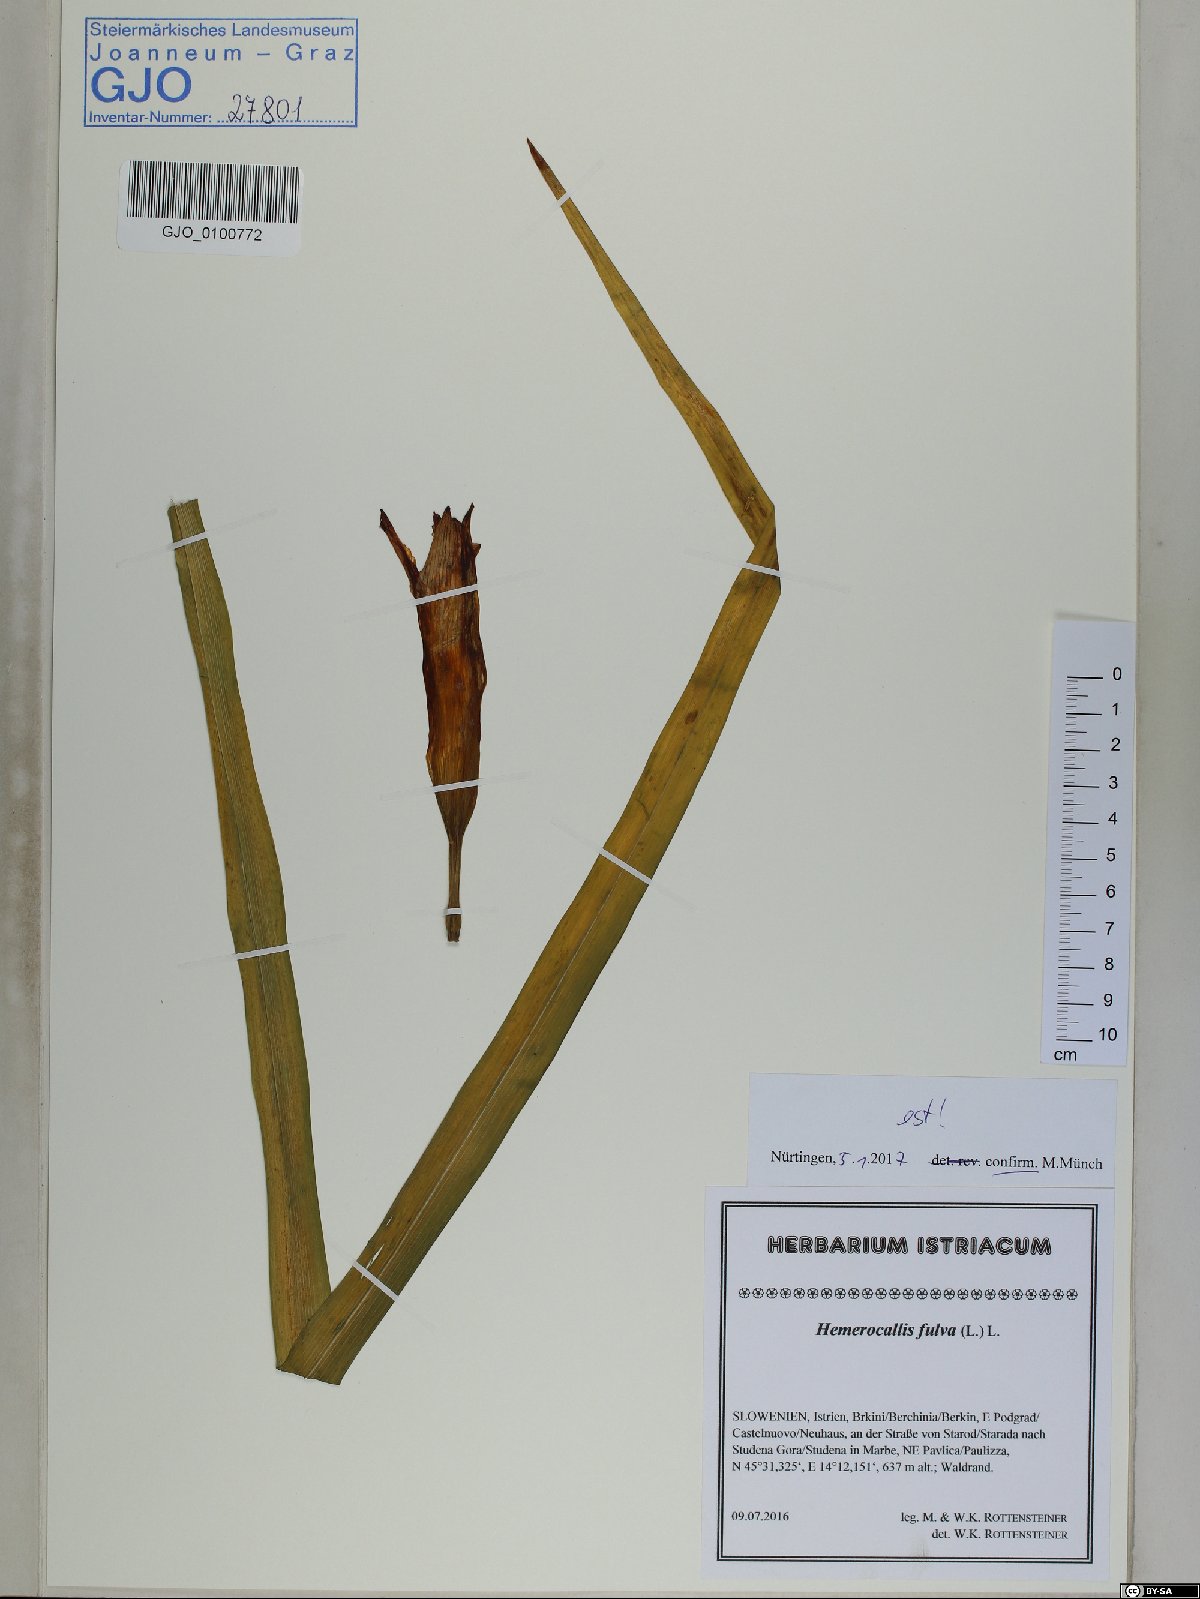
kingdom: Plantae
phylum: Tracheophyta
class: Liliopsida
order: Asparagales
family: Asphodelaceae
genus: Hemerocallis
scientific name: Hemerocallis fulva
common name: Orange day-lily
